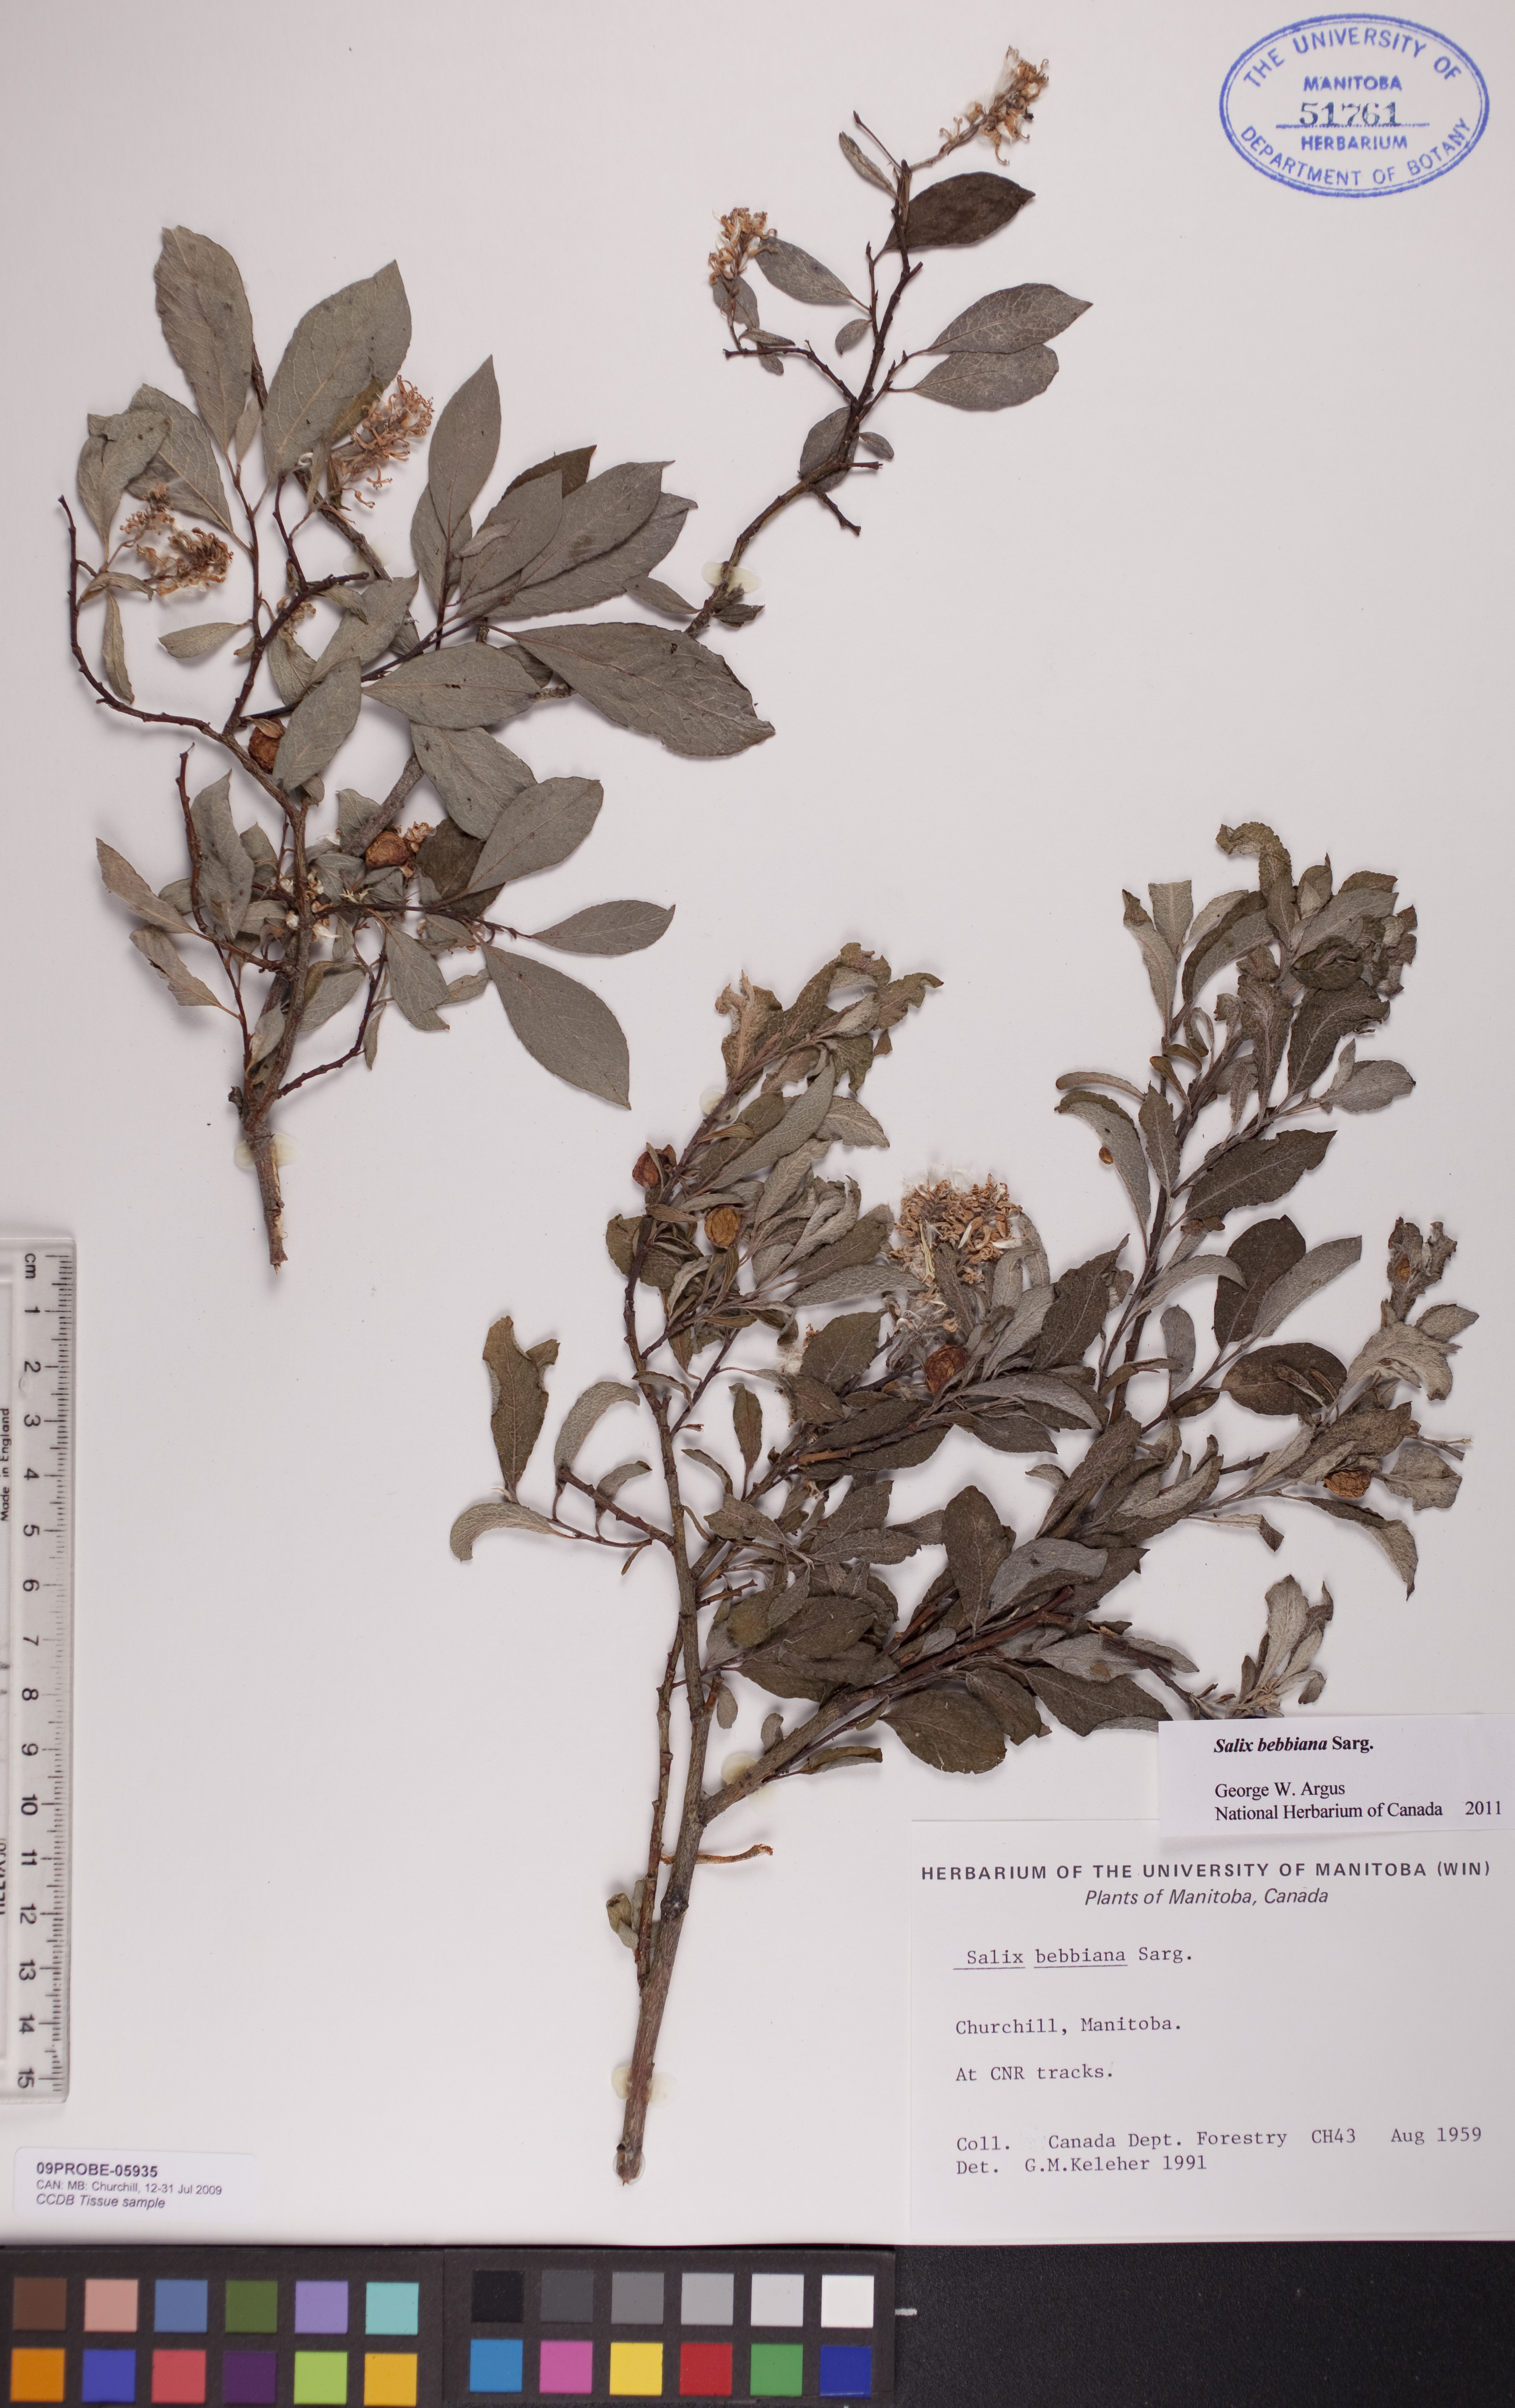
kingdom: Plantae
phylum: Tracheophyta
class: Magnoliopsida
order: Malpighiales
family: Salicaceae
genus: Salix
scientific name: Salix bebbiana
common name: Bebb's willow
